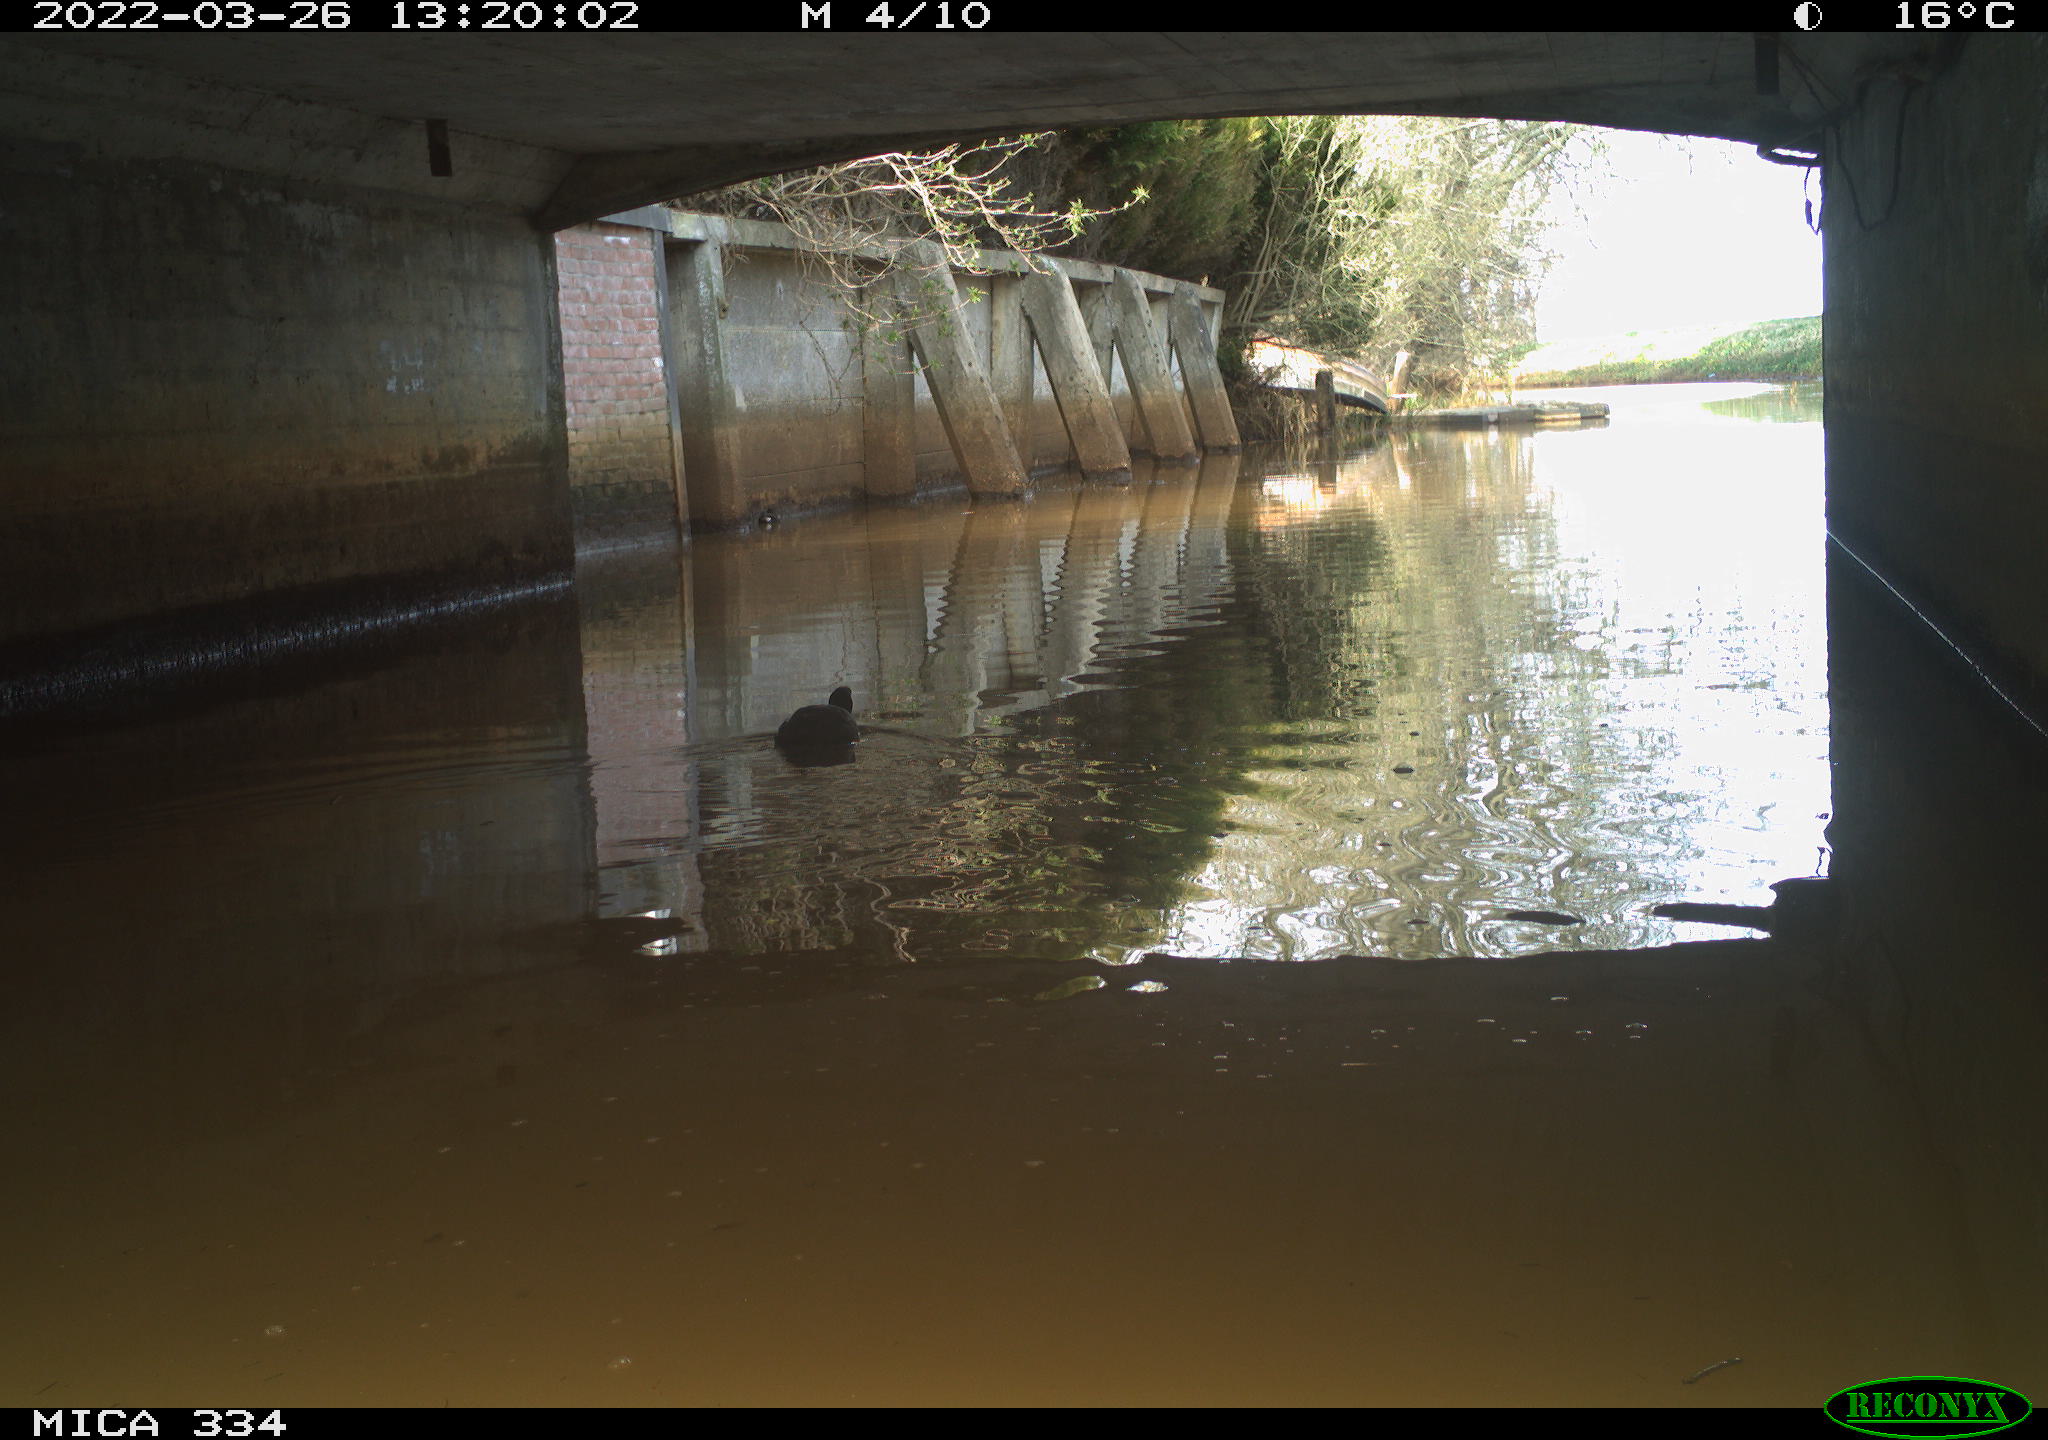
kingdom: Animalia
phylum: Chordata
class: Aves
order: Gruiformes
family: Rallidae
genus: Fulica
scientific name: Fulica atra
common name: Eurasian coot
